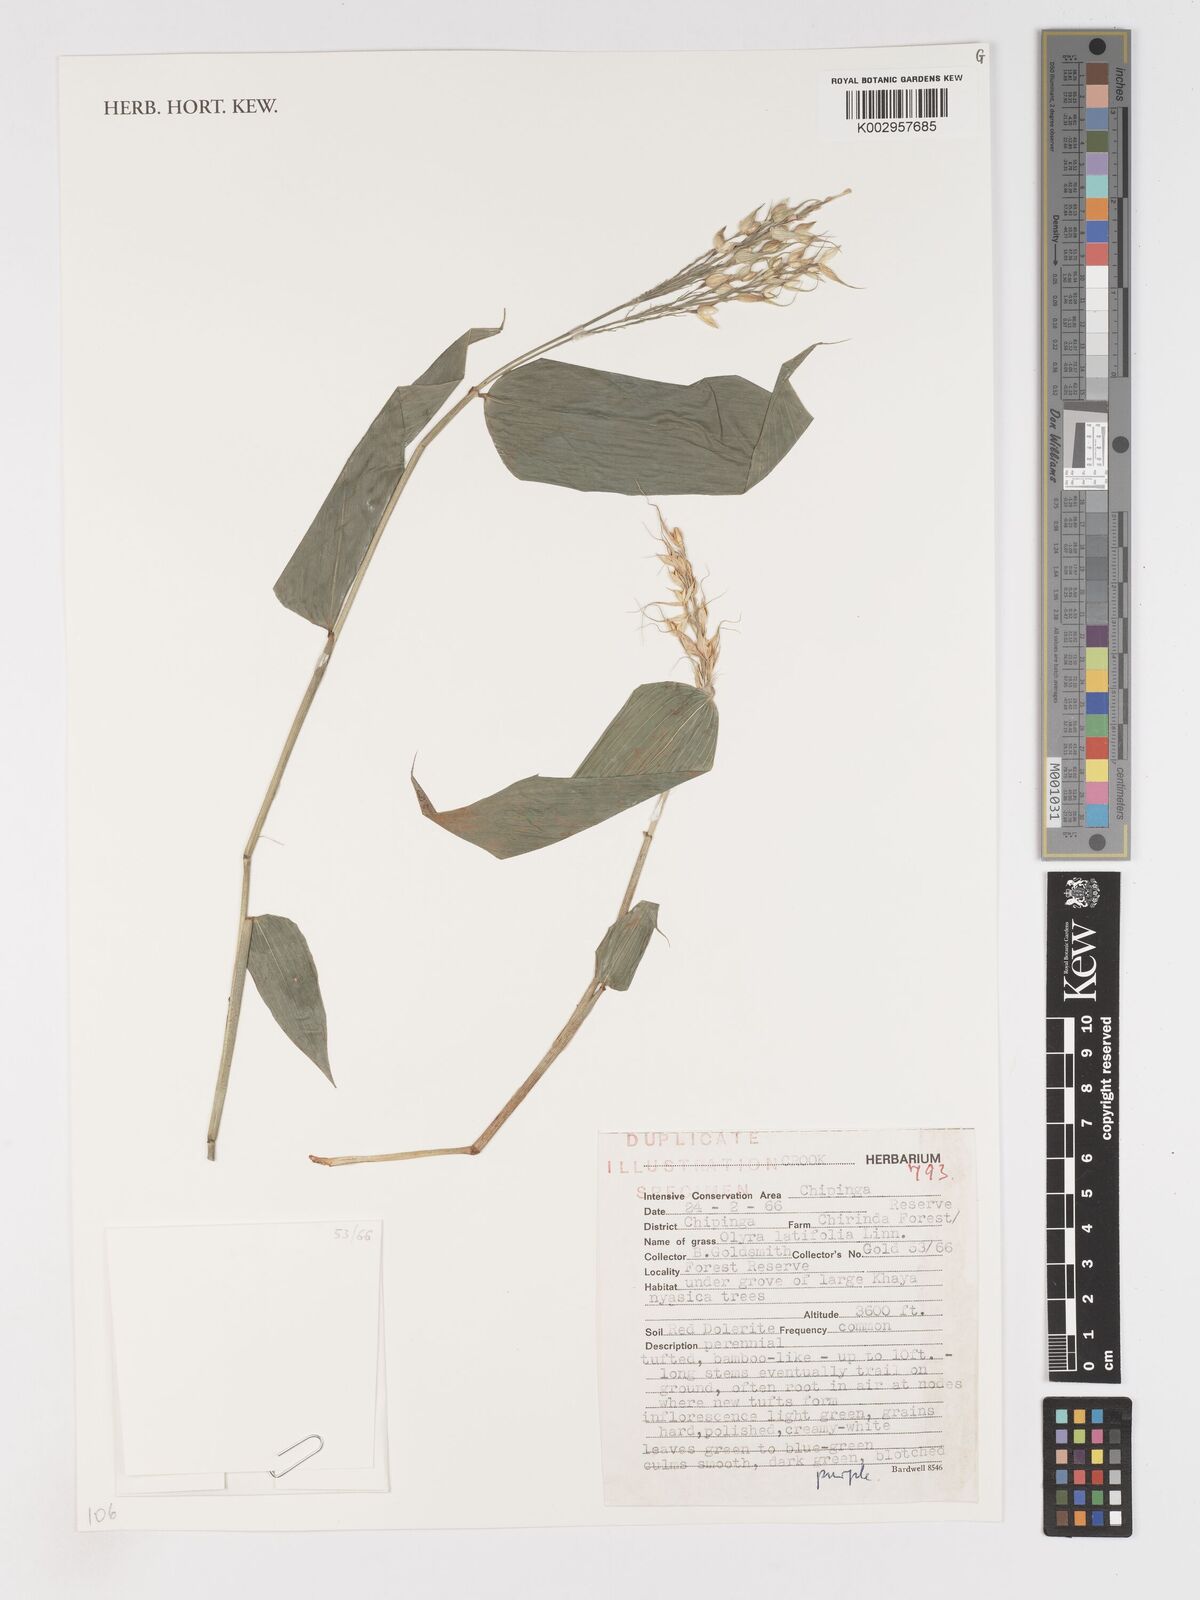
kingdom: Plantae
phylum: Tracheophyta
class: Liliopsida
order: Poales
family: Poaceae
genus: Olyra
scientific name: Olyra latifolia
